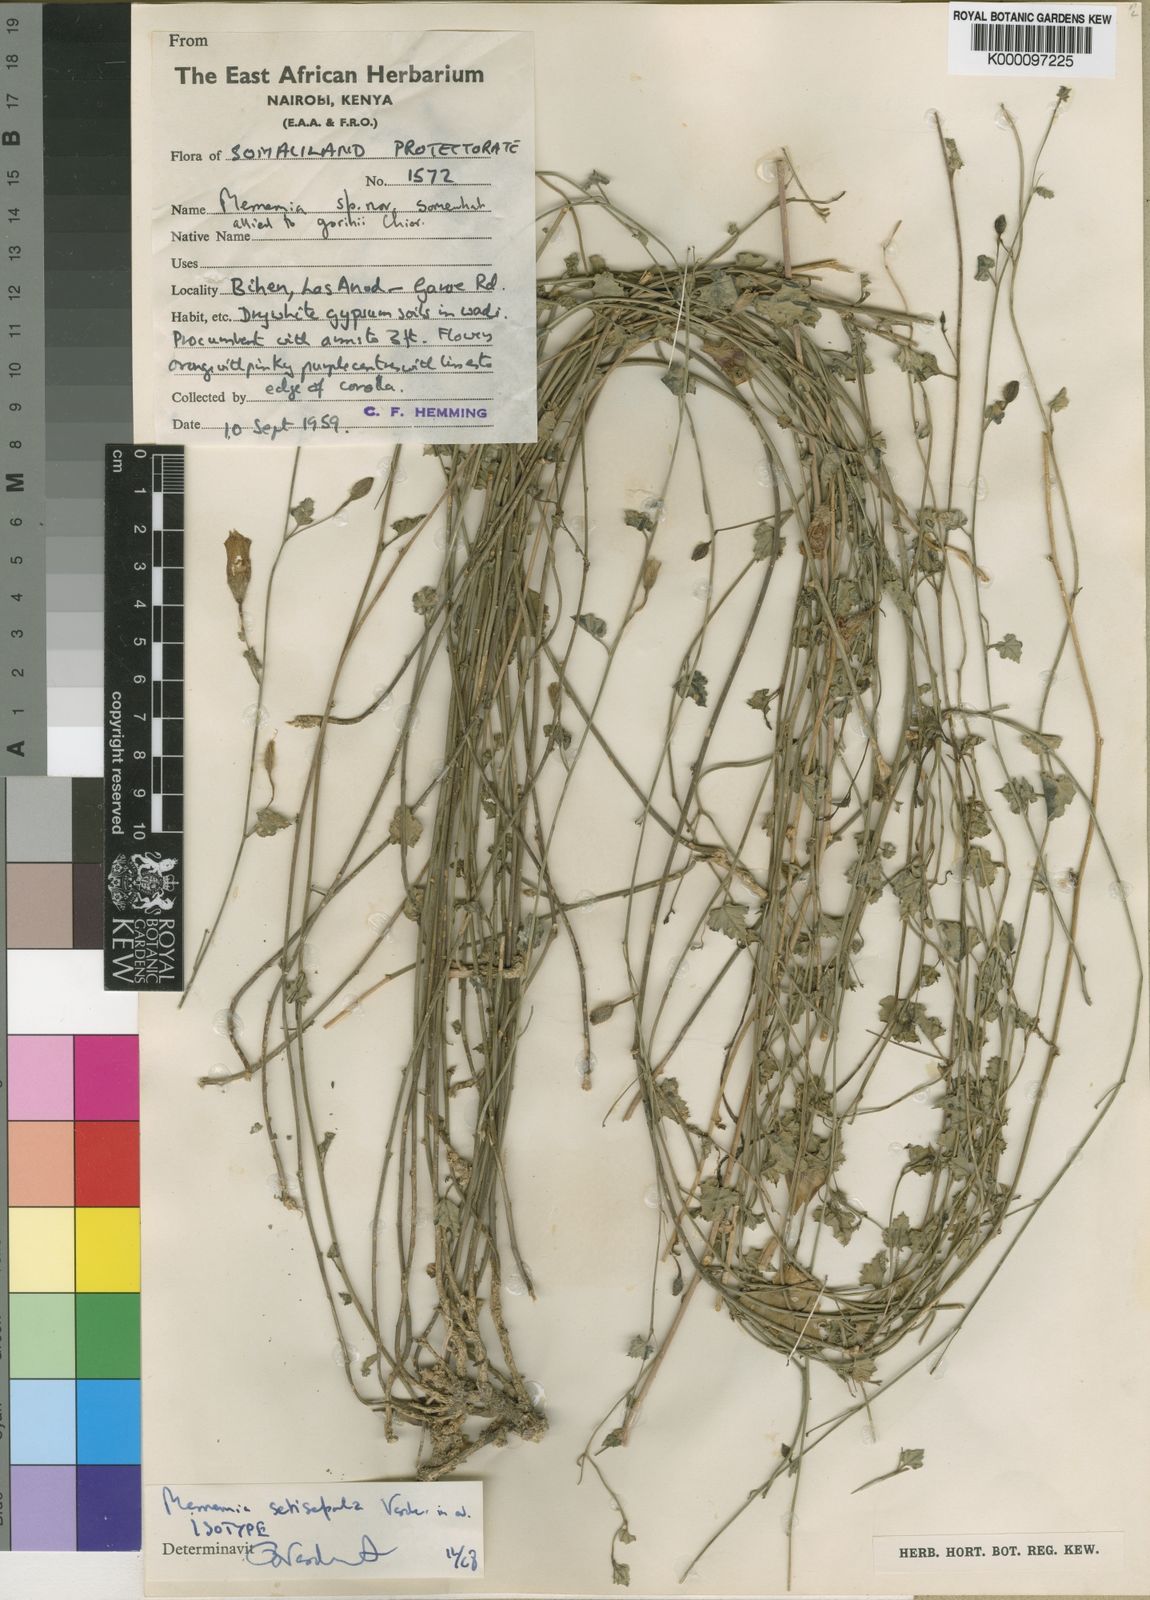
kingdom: Plantae
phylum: Tracheophyta
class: Magnoliopsida
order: Solanales
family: Convolvulaceae
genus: Merremia
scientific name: Merremia gorinii
